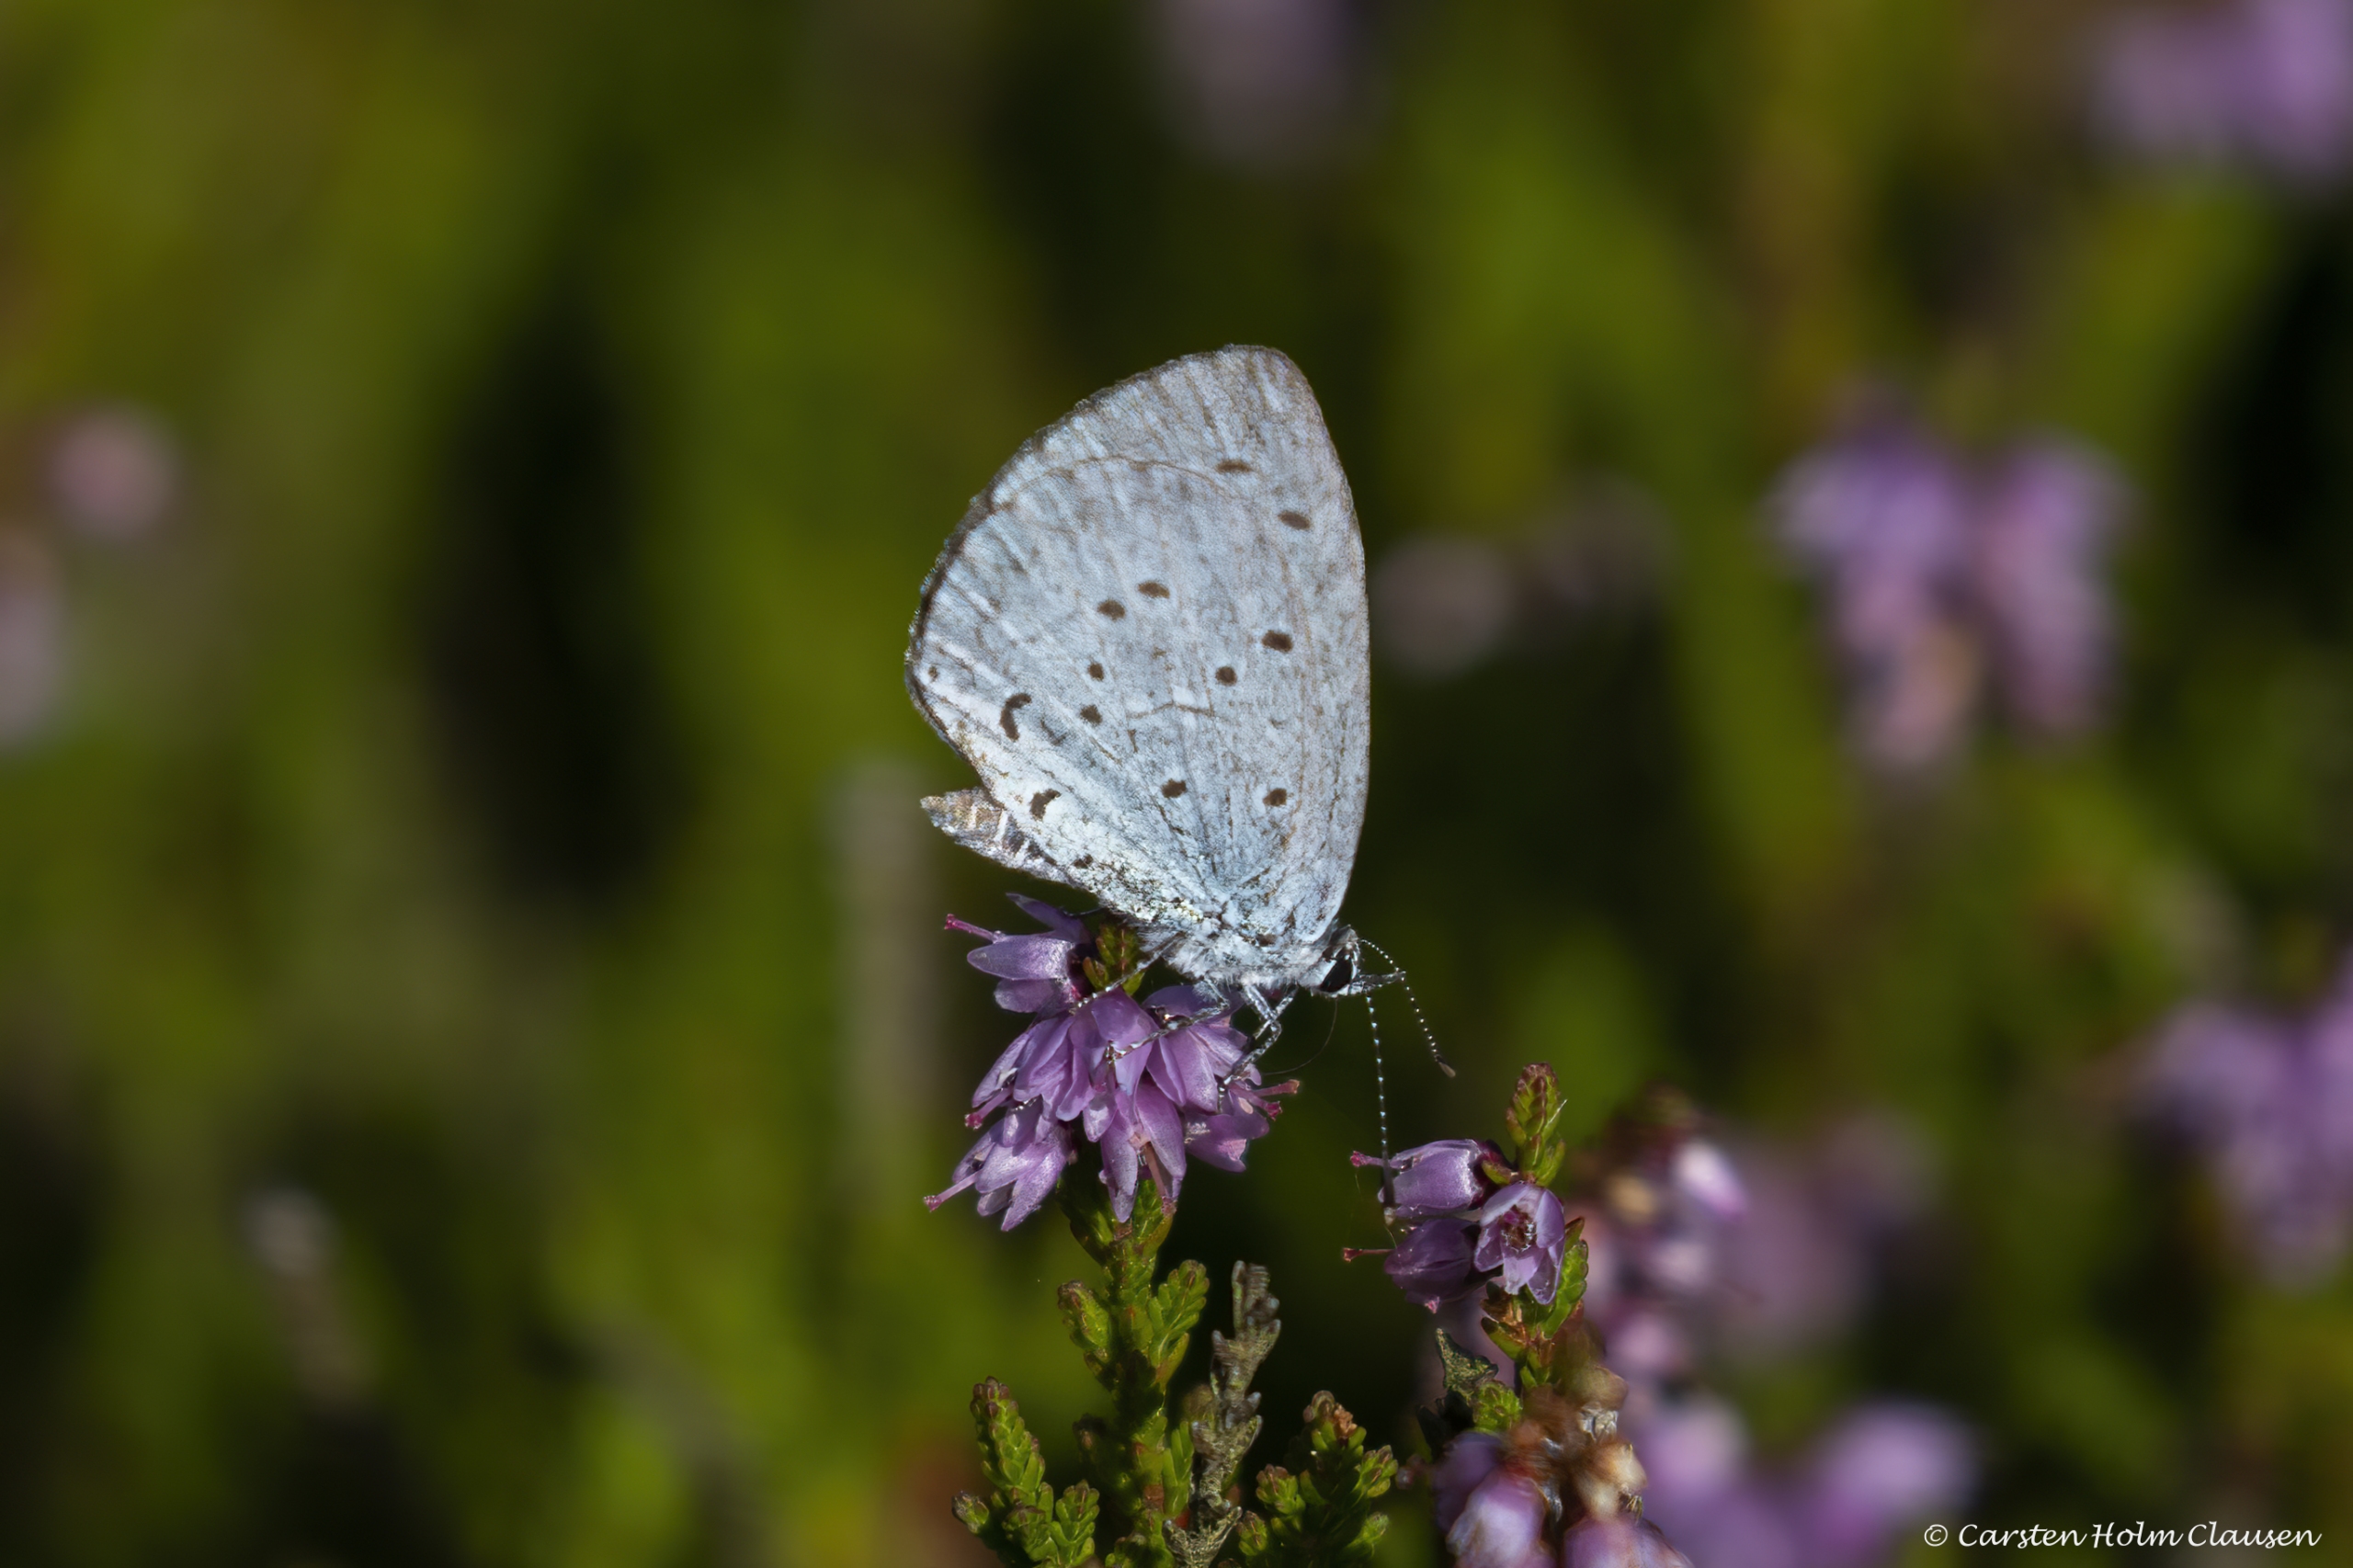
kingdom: Animalia
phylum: Arthropoda
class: Insecta
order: Lepidoptera
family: Lycaenidae
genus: Celastrina
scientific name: Celastrina argiolus
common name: Skovblåfugl
